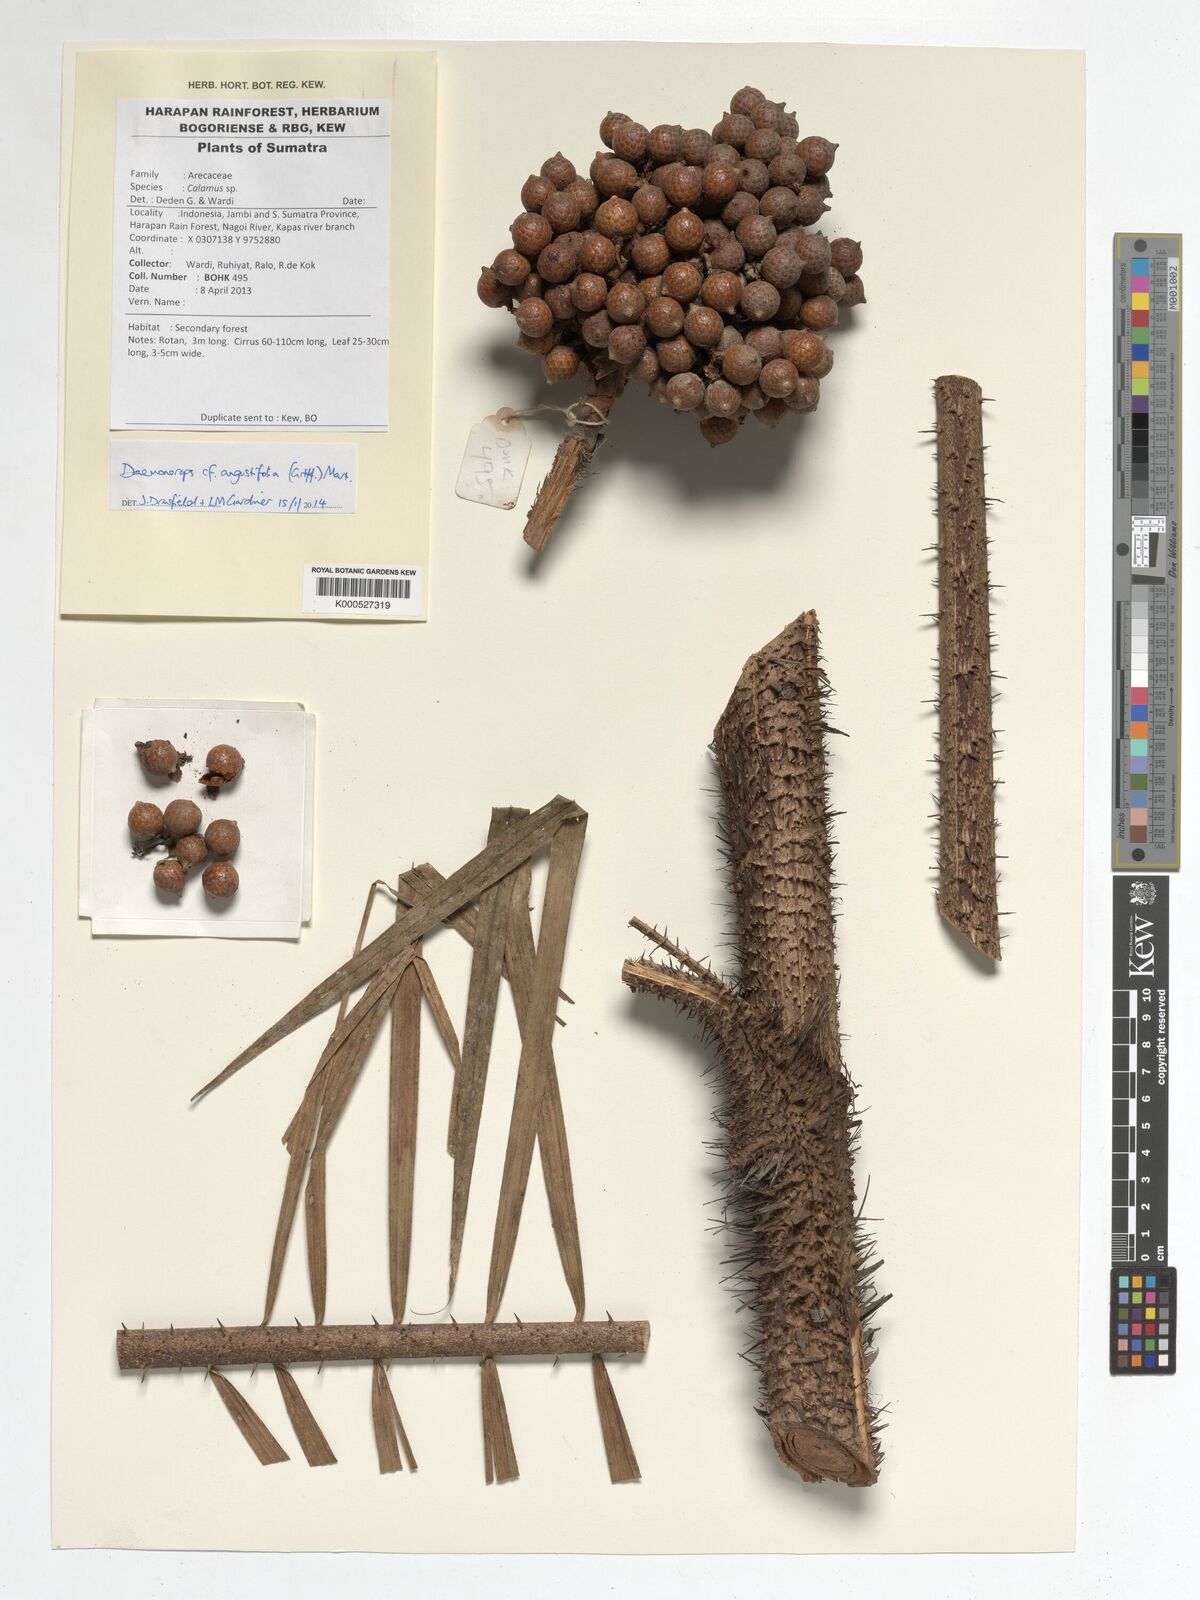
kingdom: Plantae
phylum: Tracheophyta
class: Liliopsida
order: Arecales
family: Arecaceae
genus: Calamus
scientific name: Calamus melanochaetes
